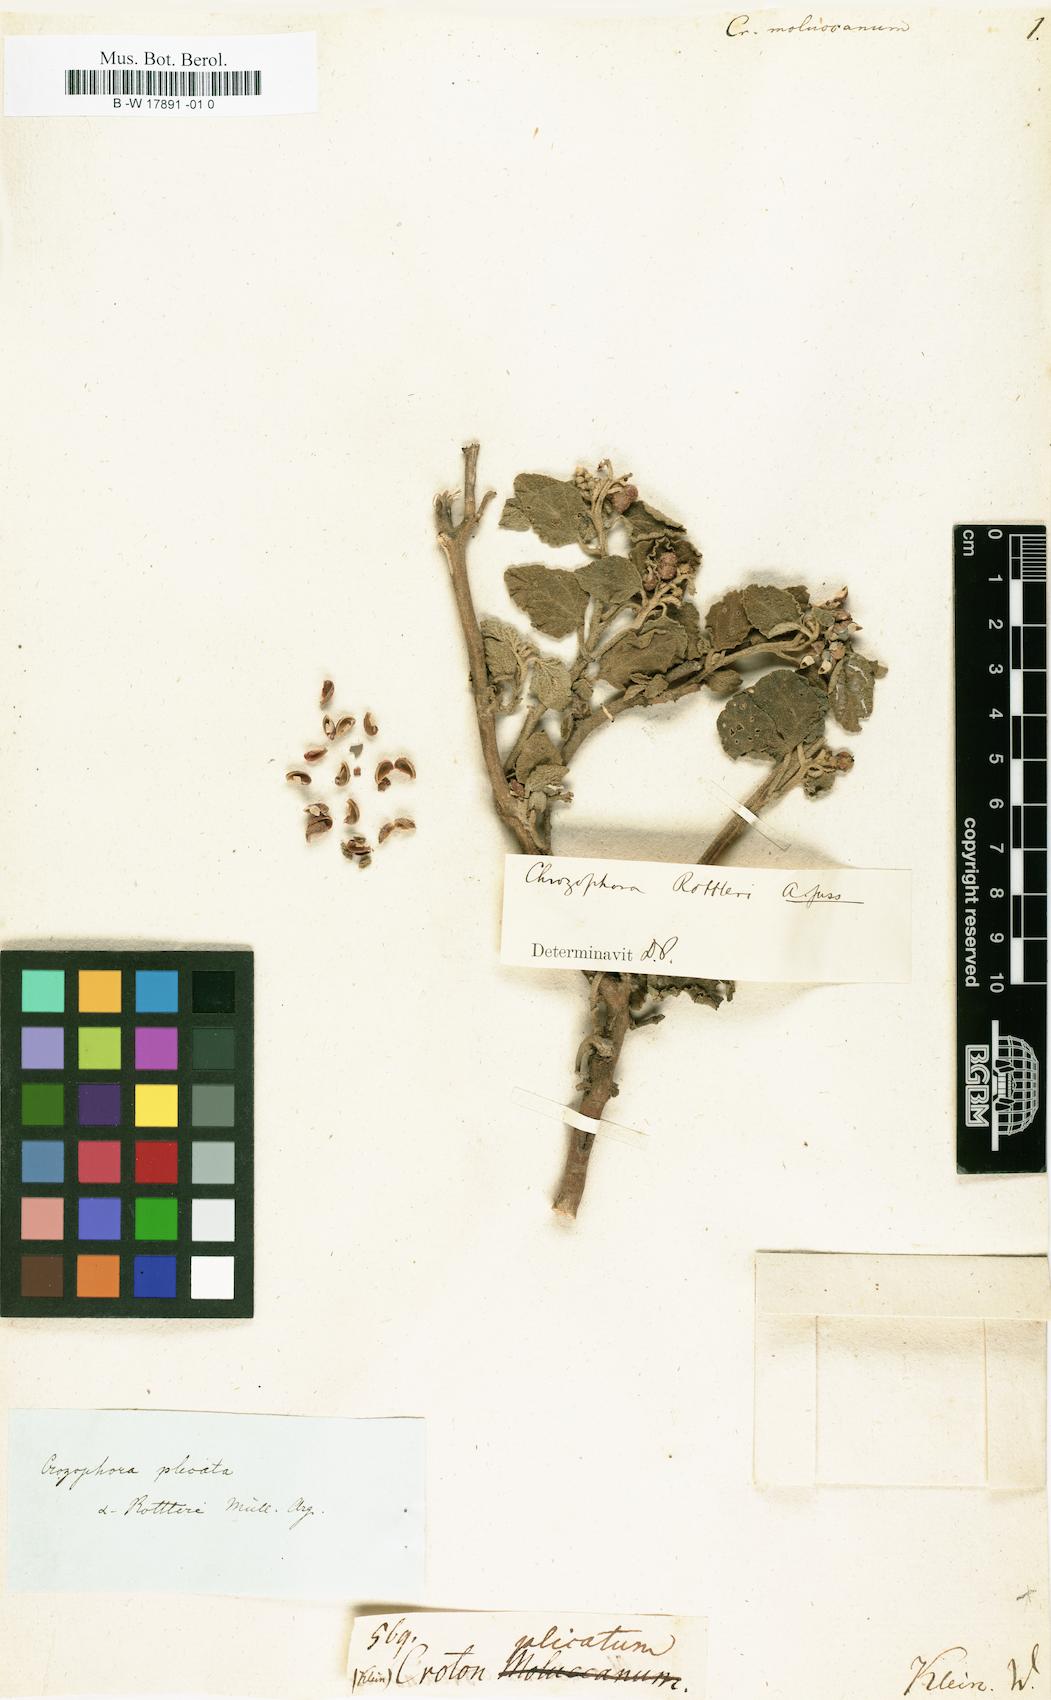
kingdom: Plantae
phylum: Tracheophyta
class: Magnoliopsida
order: Malpighiales
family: Euphorbiaceae
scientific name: Euphorbiaceae
